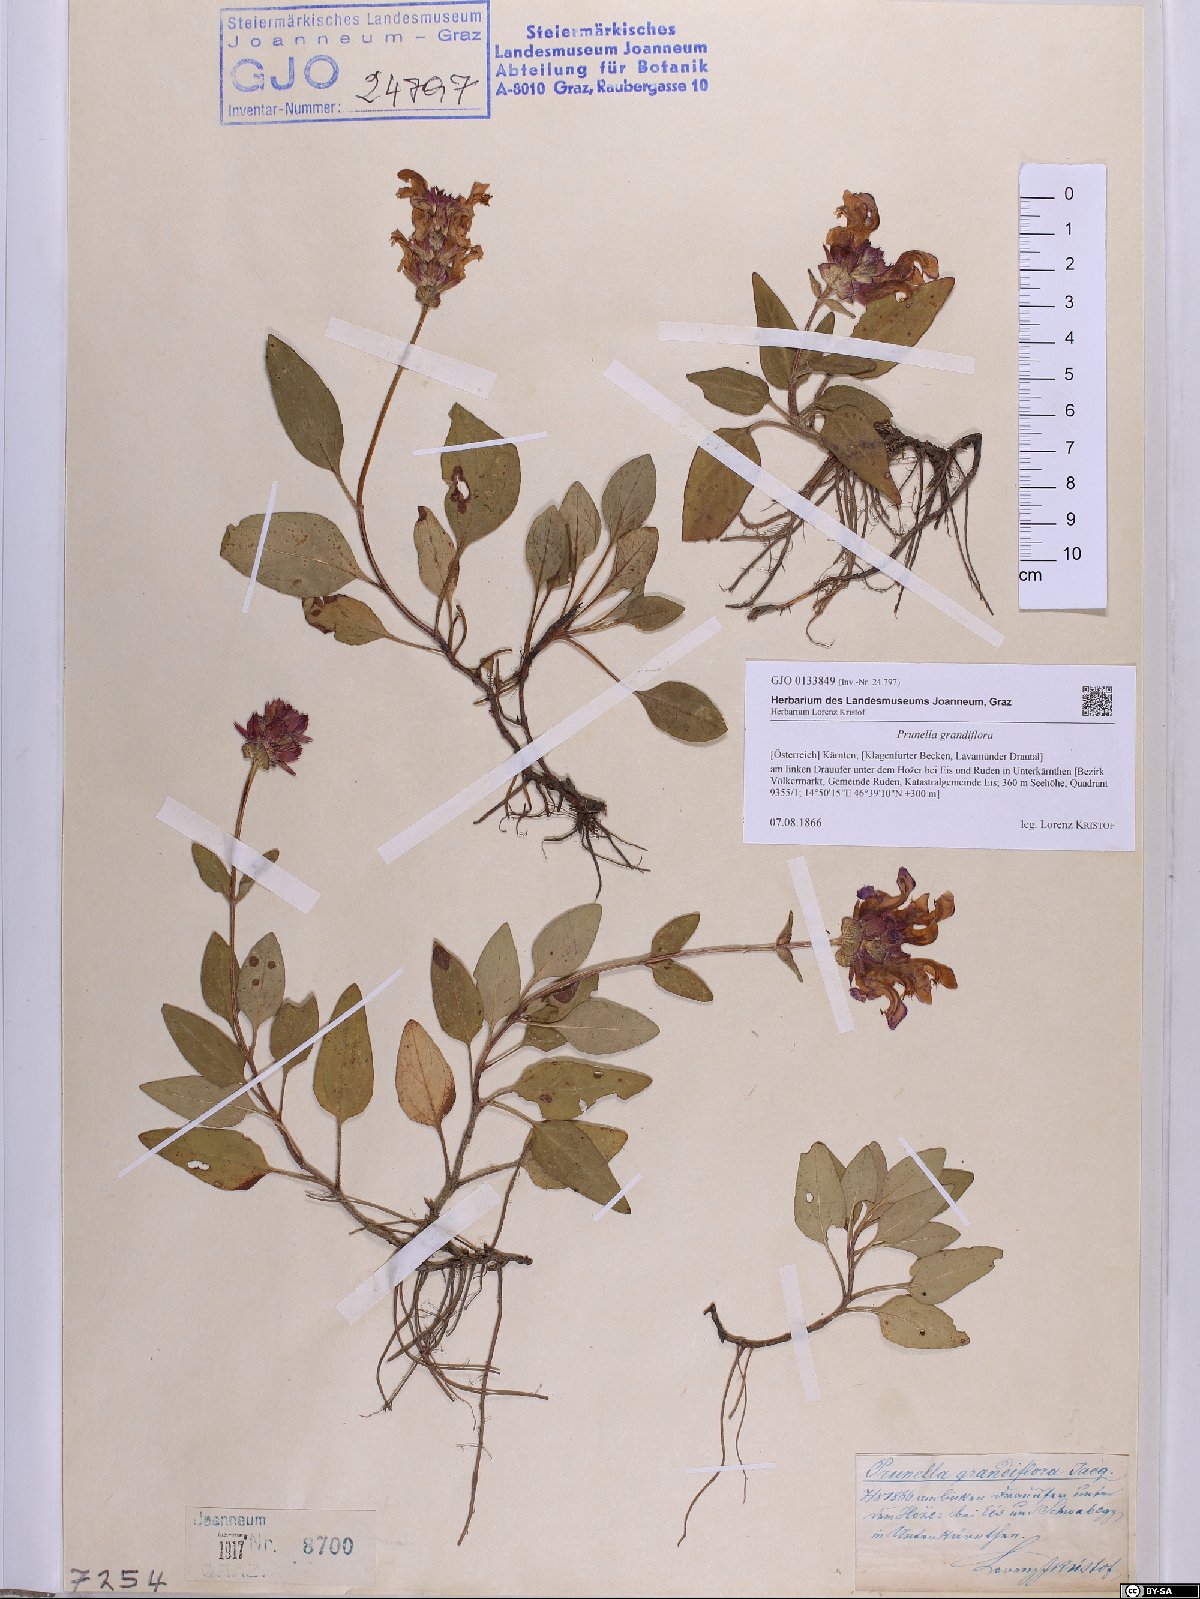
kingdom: Plantae
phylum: Tracheophyta
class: Magnoliopsida
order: Lamiales
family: Lamiaceae
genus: Prunella
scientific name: Prunella grandiflora
